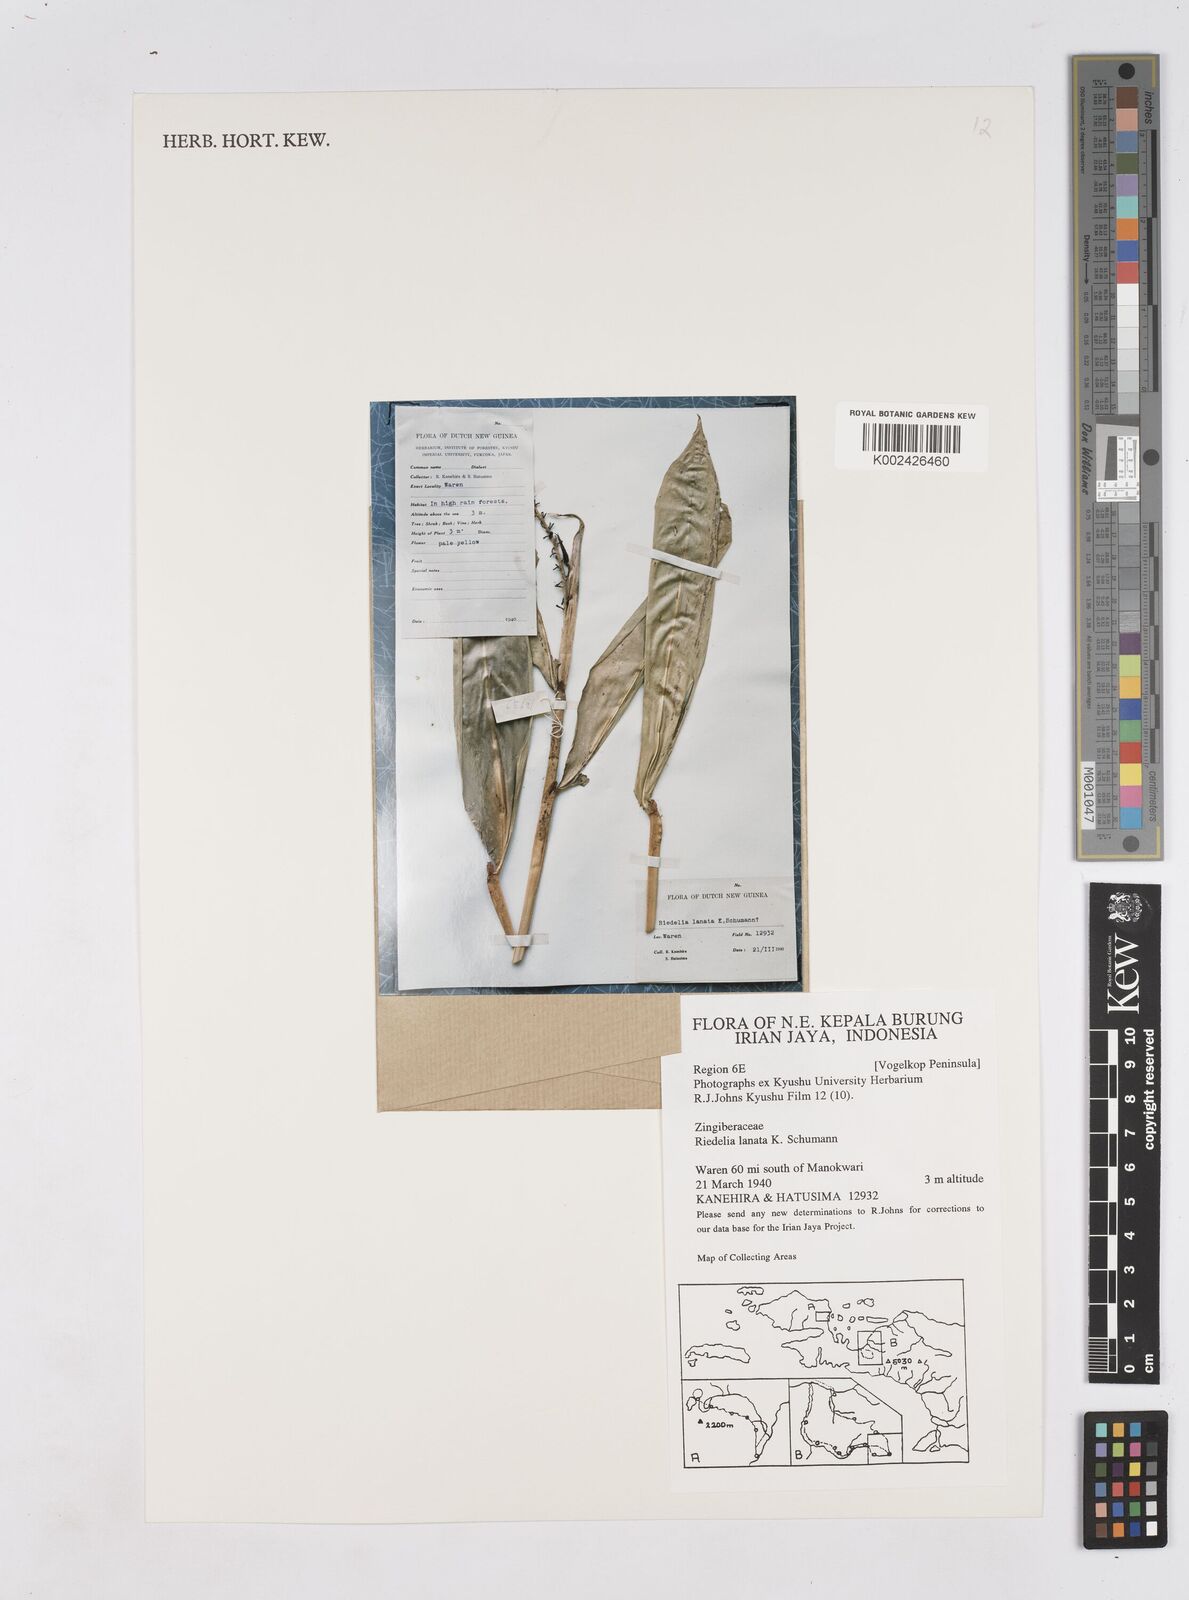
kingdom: Plantae
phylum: Tracheophyta
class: Liliopsida
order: Zingiberales
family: Zingiberaceae
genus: Riedelia
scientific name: Riedelia lanata
